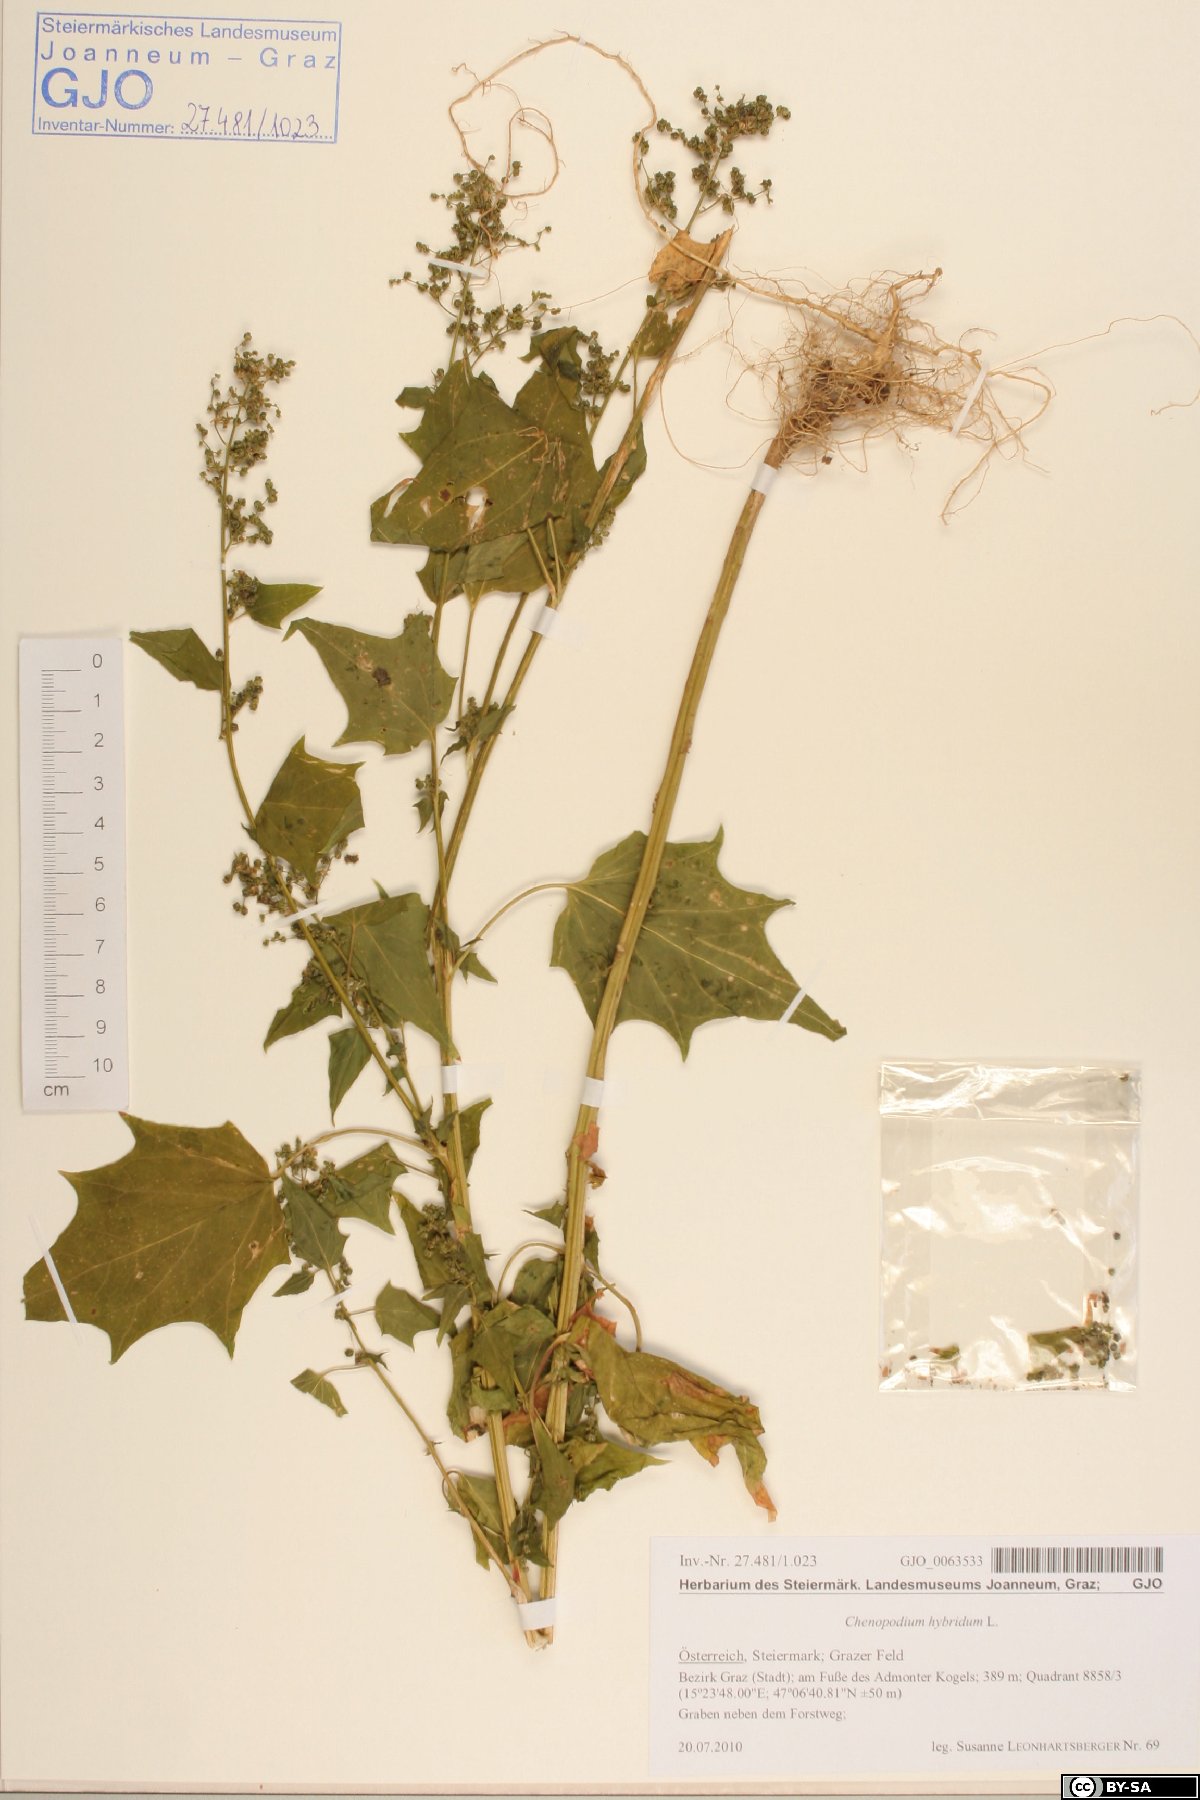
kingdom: Plantae
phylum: Tracheophyta
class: Magnoliopsida
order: Caryophyllales
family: Amaranthaceae
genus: Chenopodiastrum
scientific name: Chenopodiastrum hybridum
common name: Mapleleaf goosefoot
